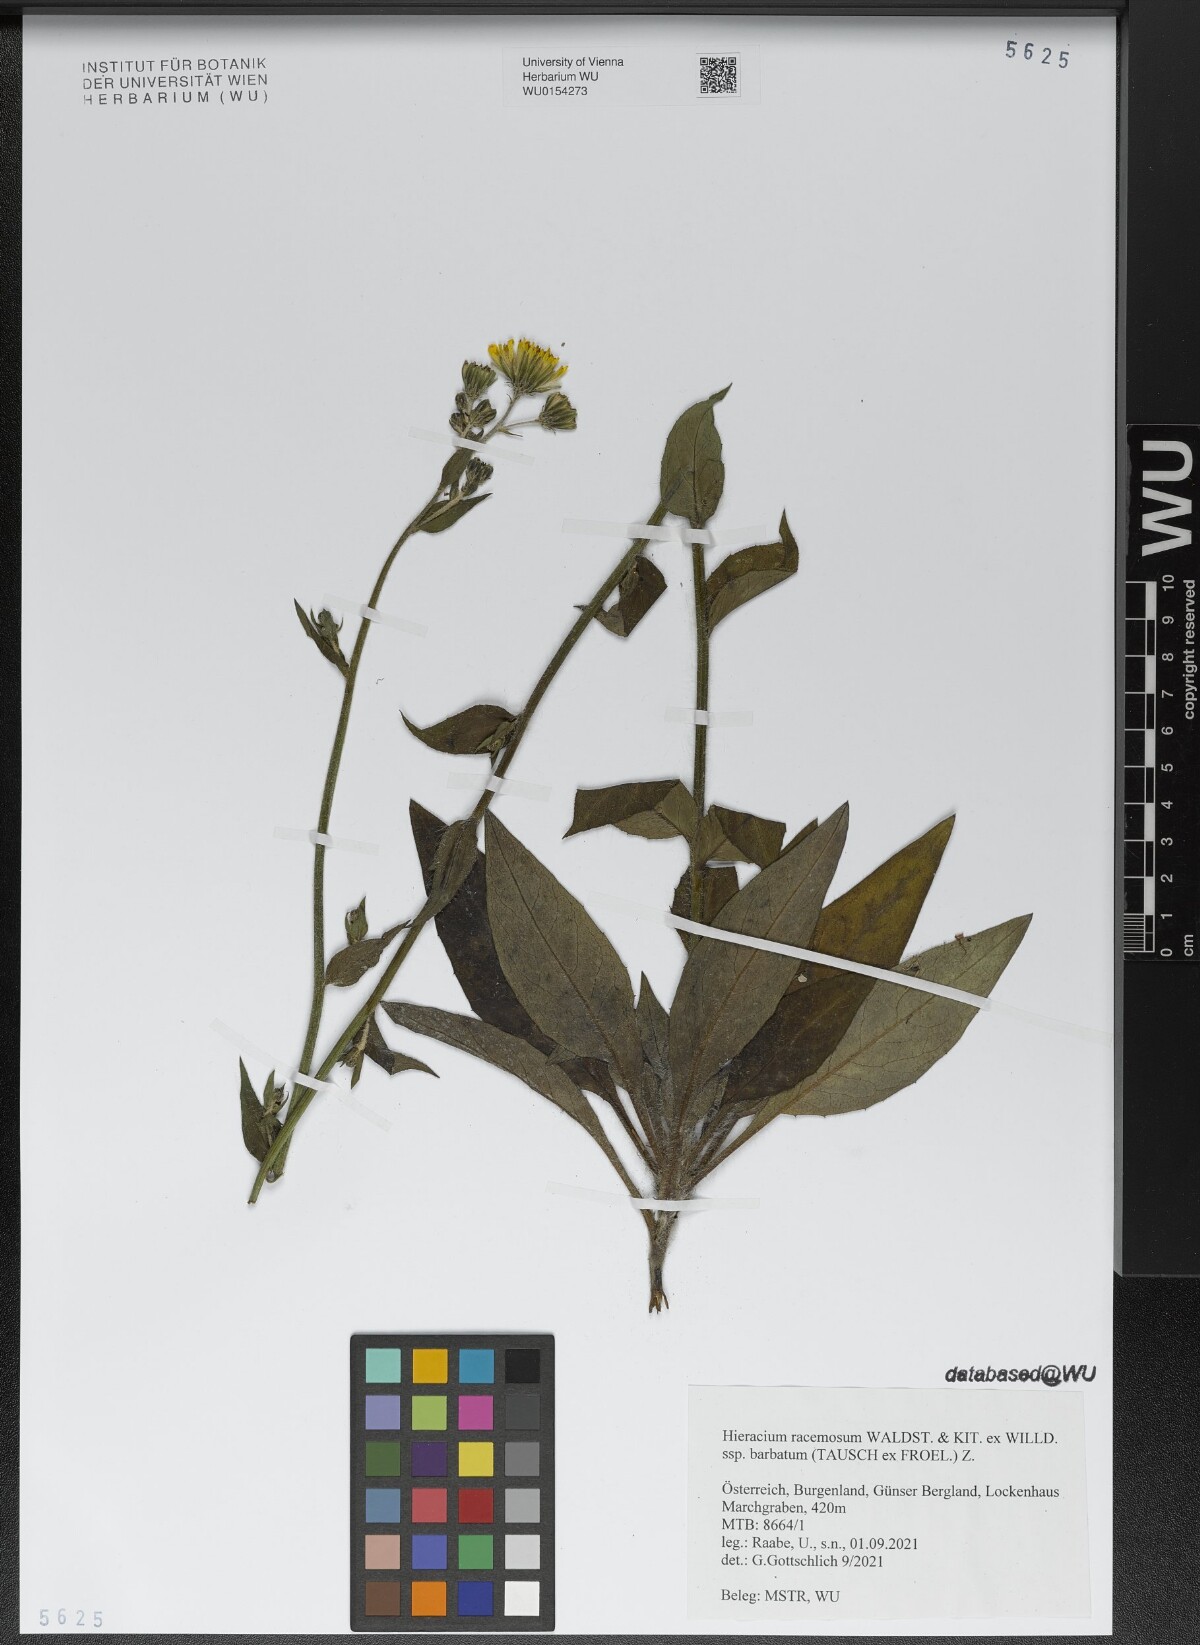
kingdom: Plantae
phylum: Tracheophyta
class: Magnoliopsida
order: Asterales
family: Asteraceae
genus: Hieracium
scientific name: Hieracium racemosum
